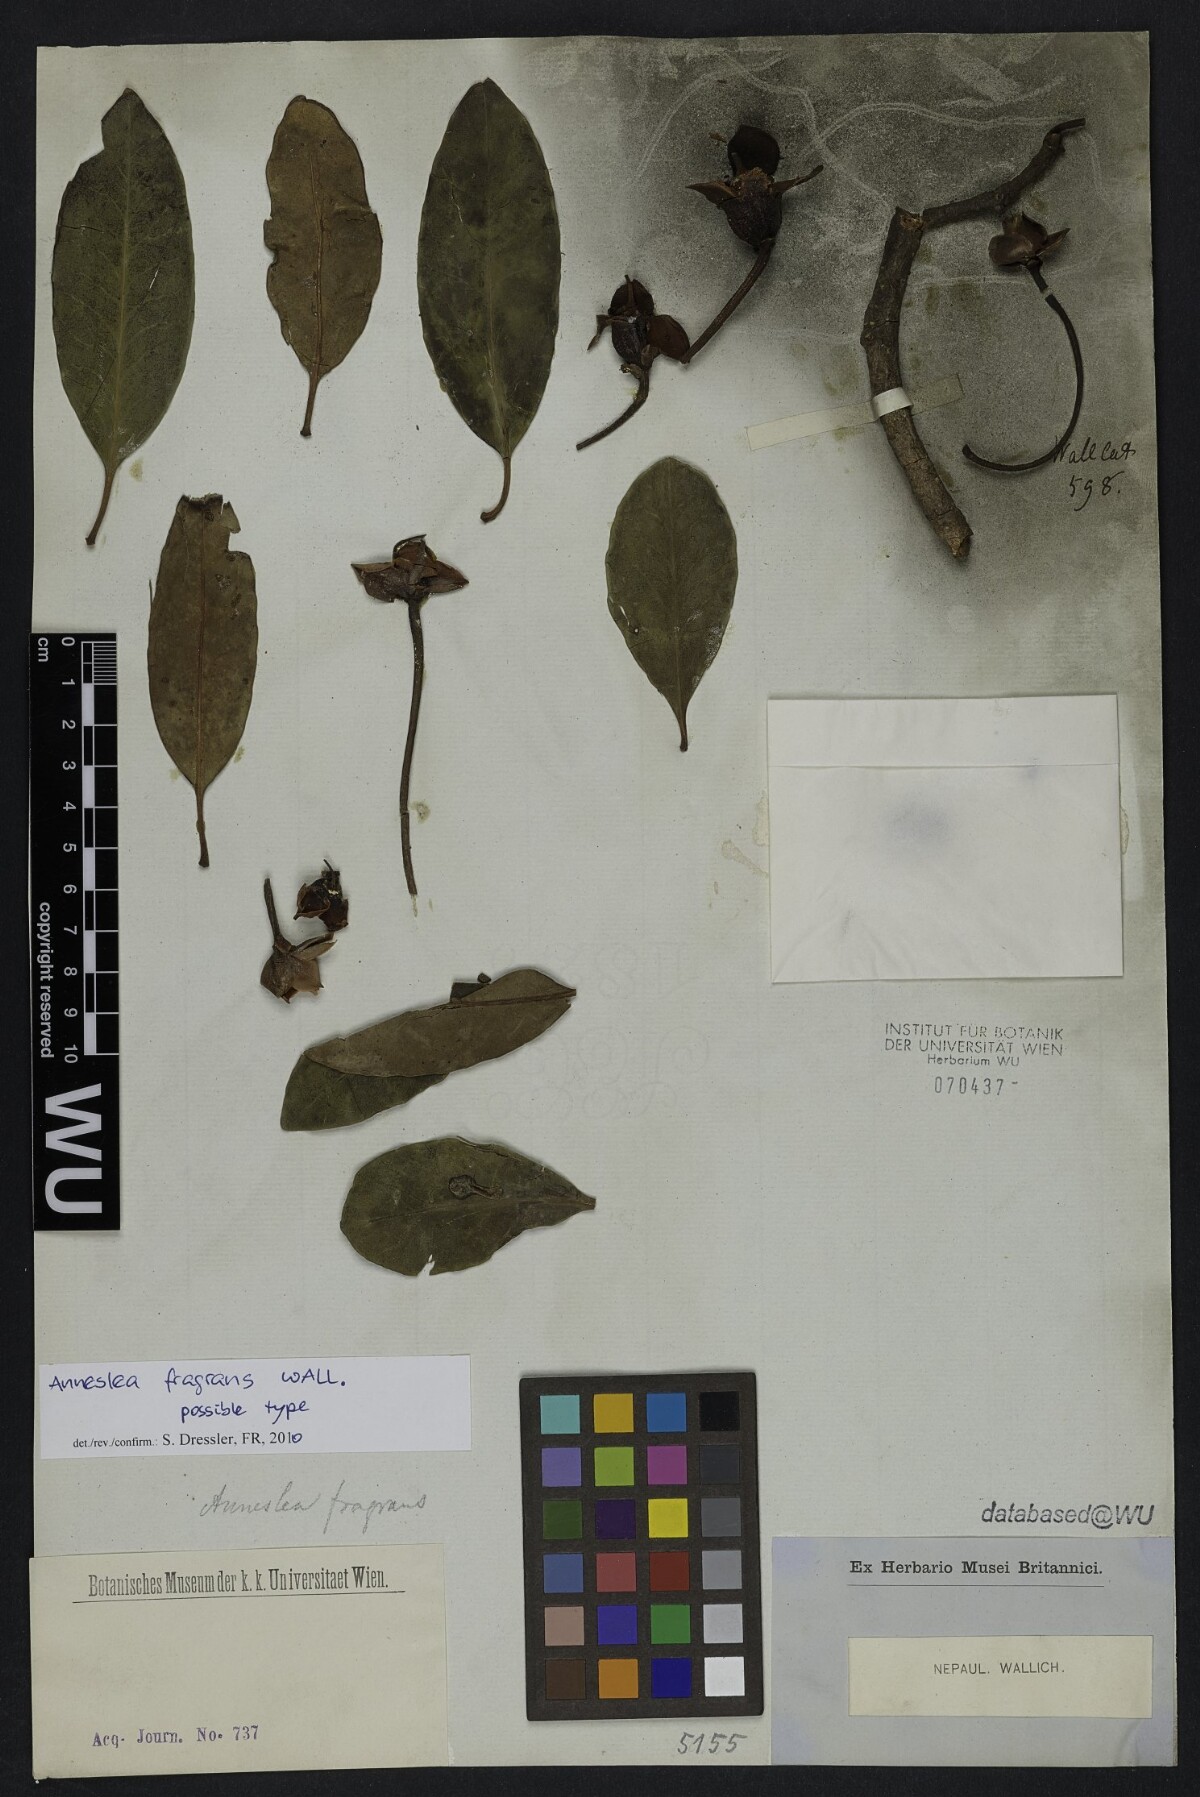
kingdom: Plantae
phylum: Tracheophyta
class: Magnoliopsida
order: Ericales
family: Pentaphylacaceae
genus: Anneslea
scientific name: Anneslea fragrans
